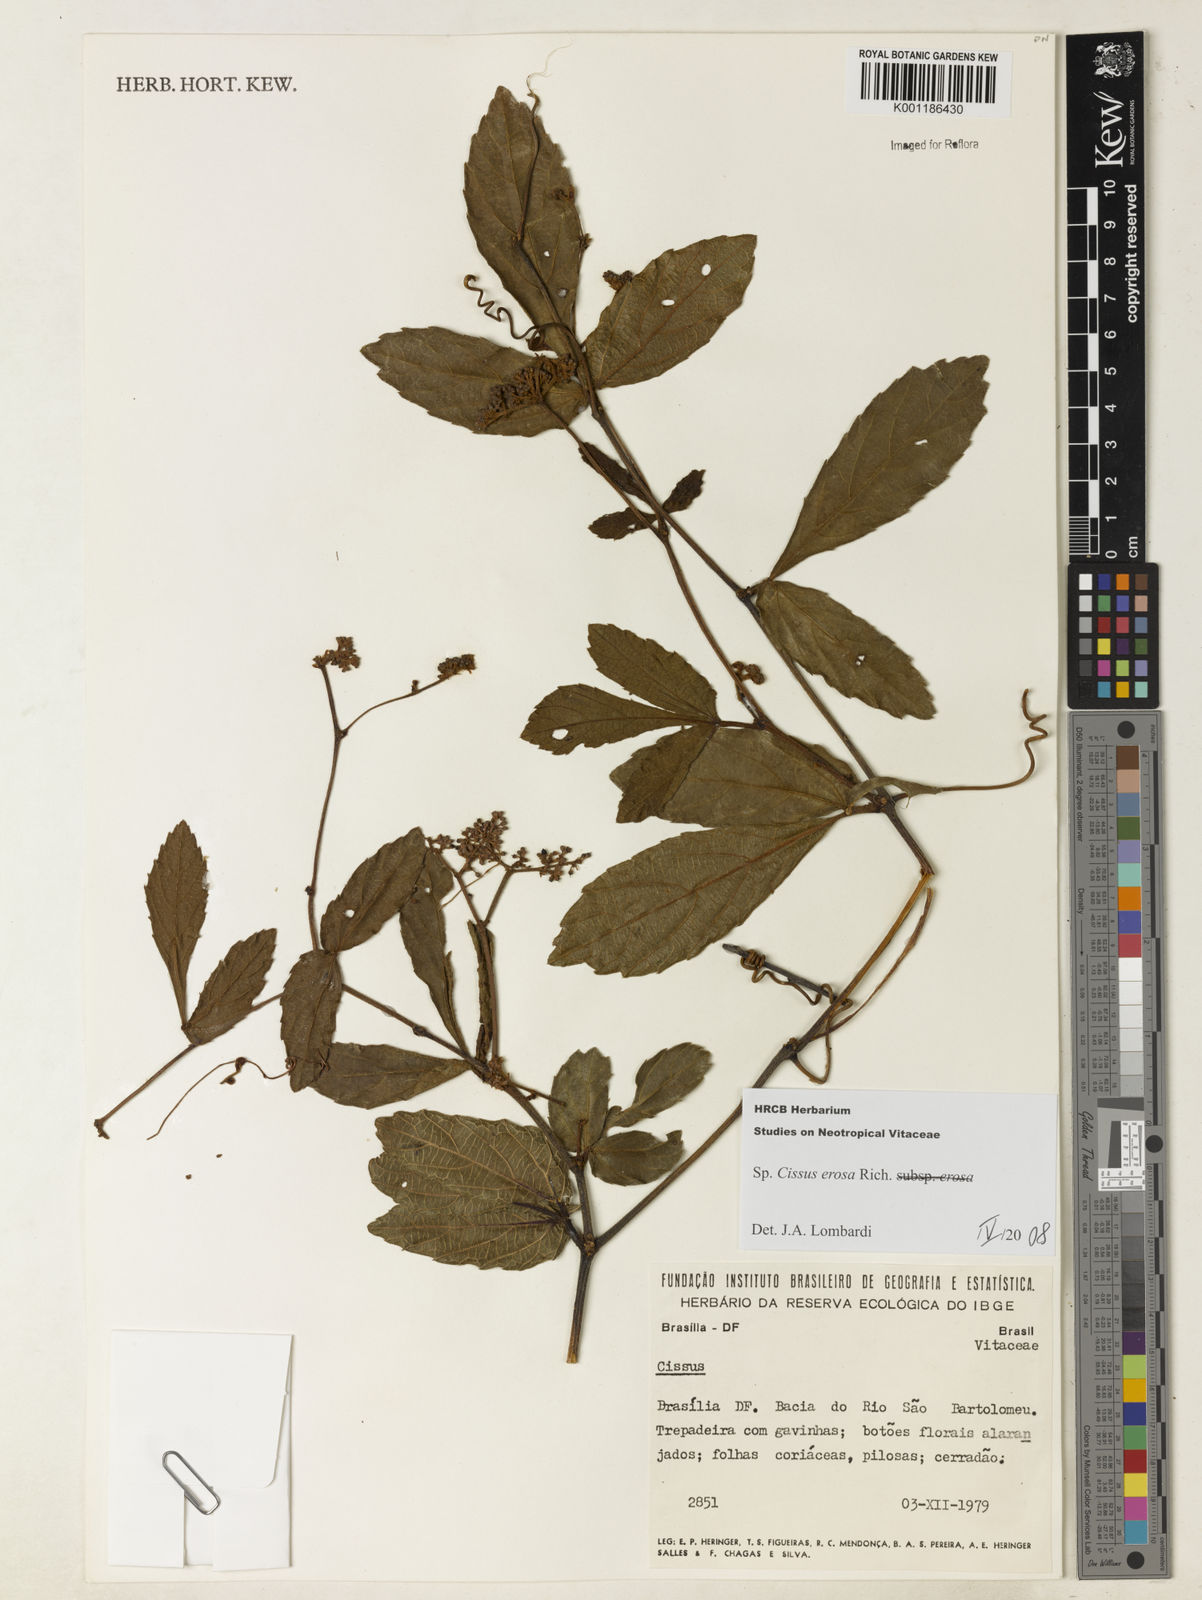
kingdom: Plantae
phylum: Tracheophyta
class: Magnoliopsida
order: Vitales
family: Vitaceae
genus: Cissus
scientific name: Cissus erosa
